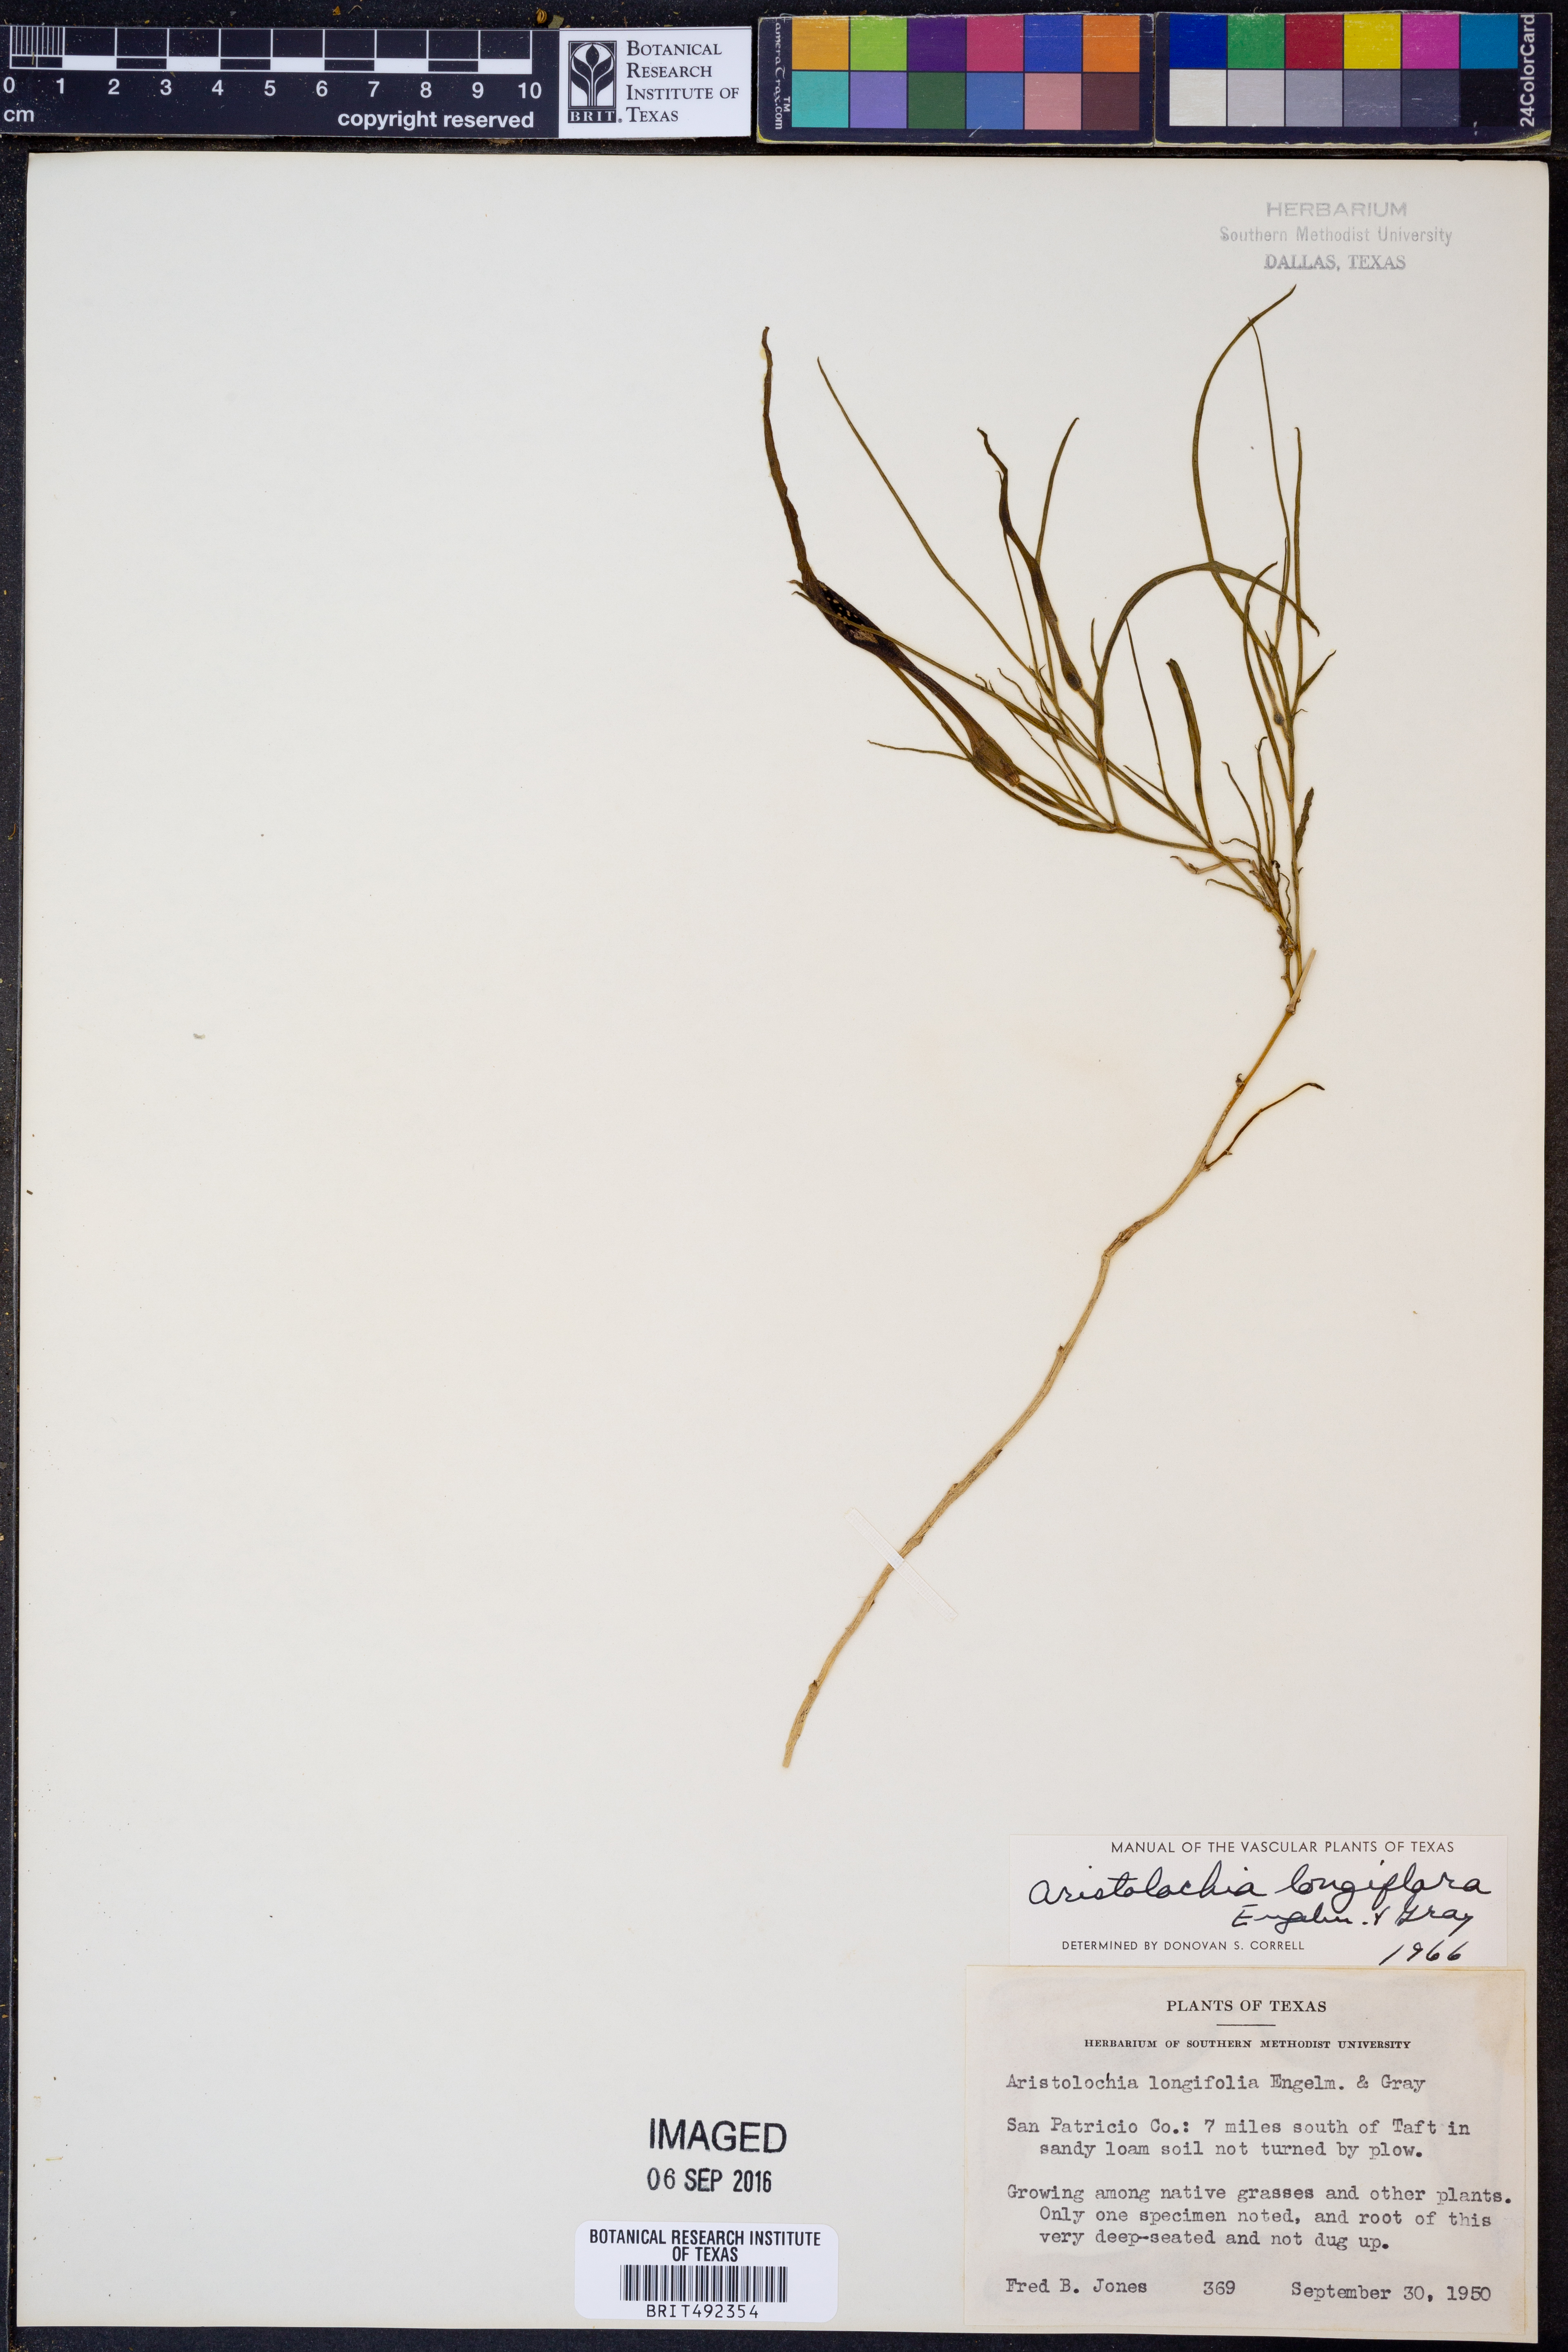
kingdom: Plantae
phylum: Tracheophyta
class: Magnoliopsida
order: Piperales
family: Aristolochiaceae
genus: Aristolochia
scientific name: Aristolochia erecta
